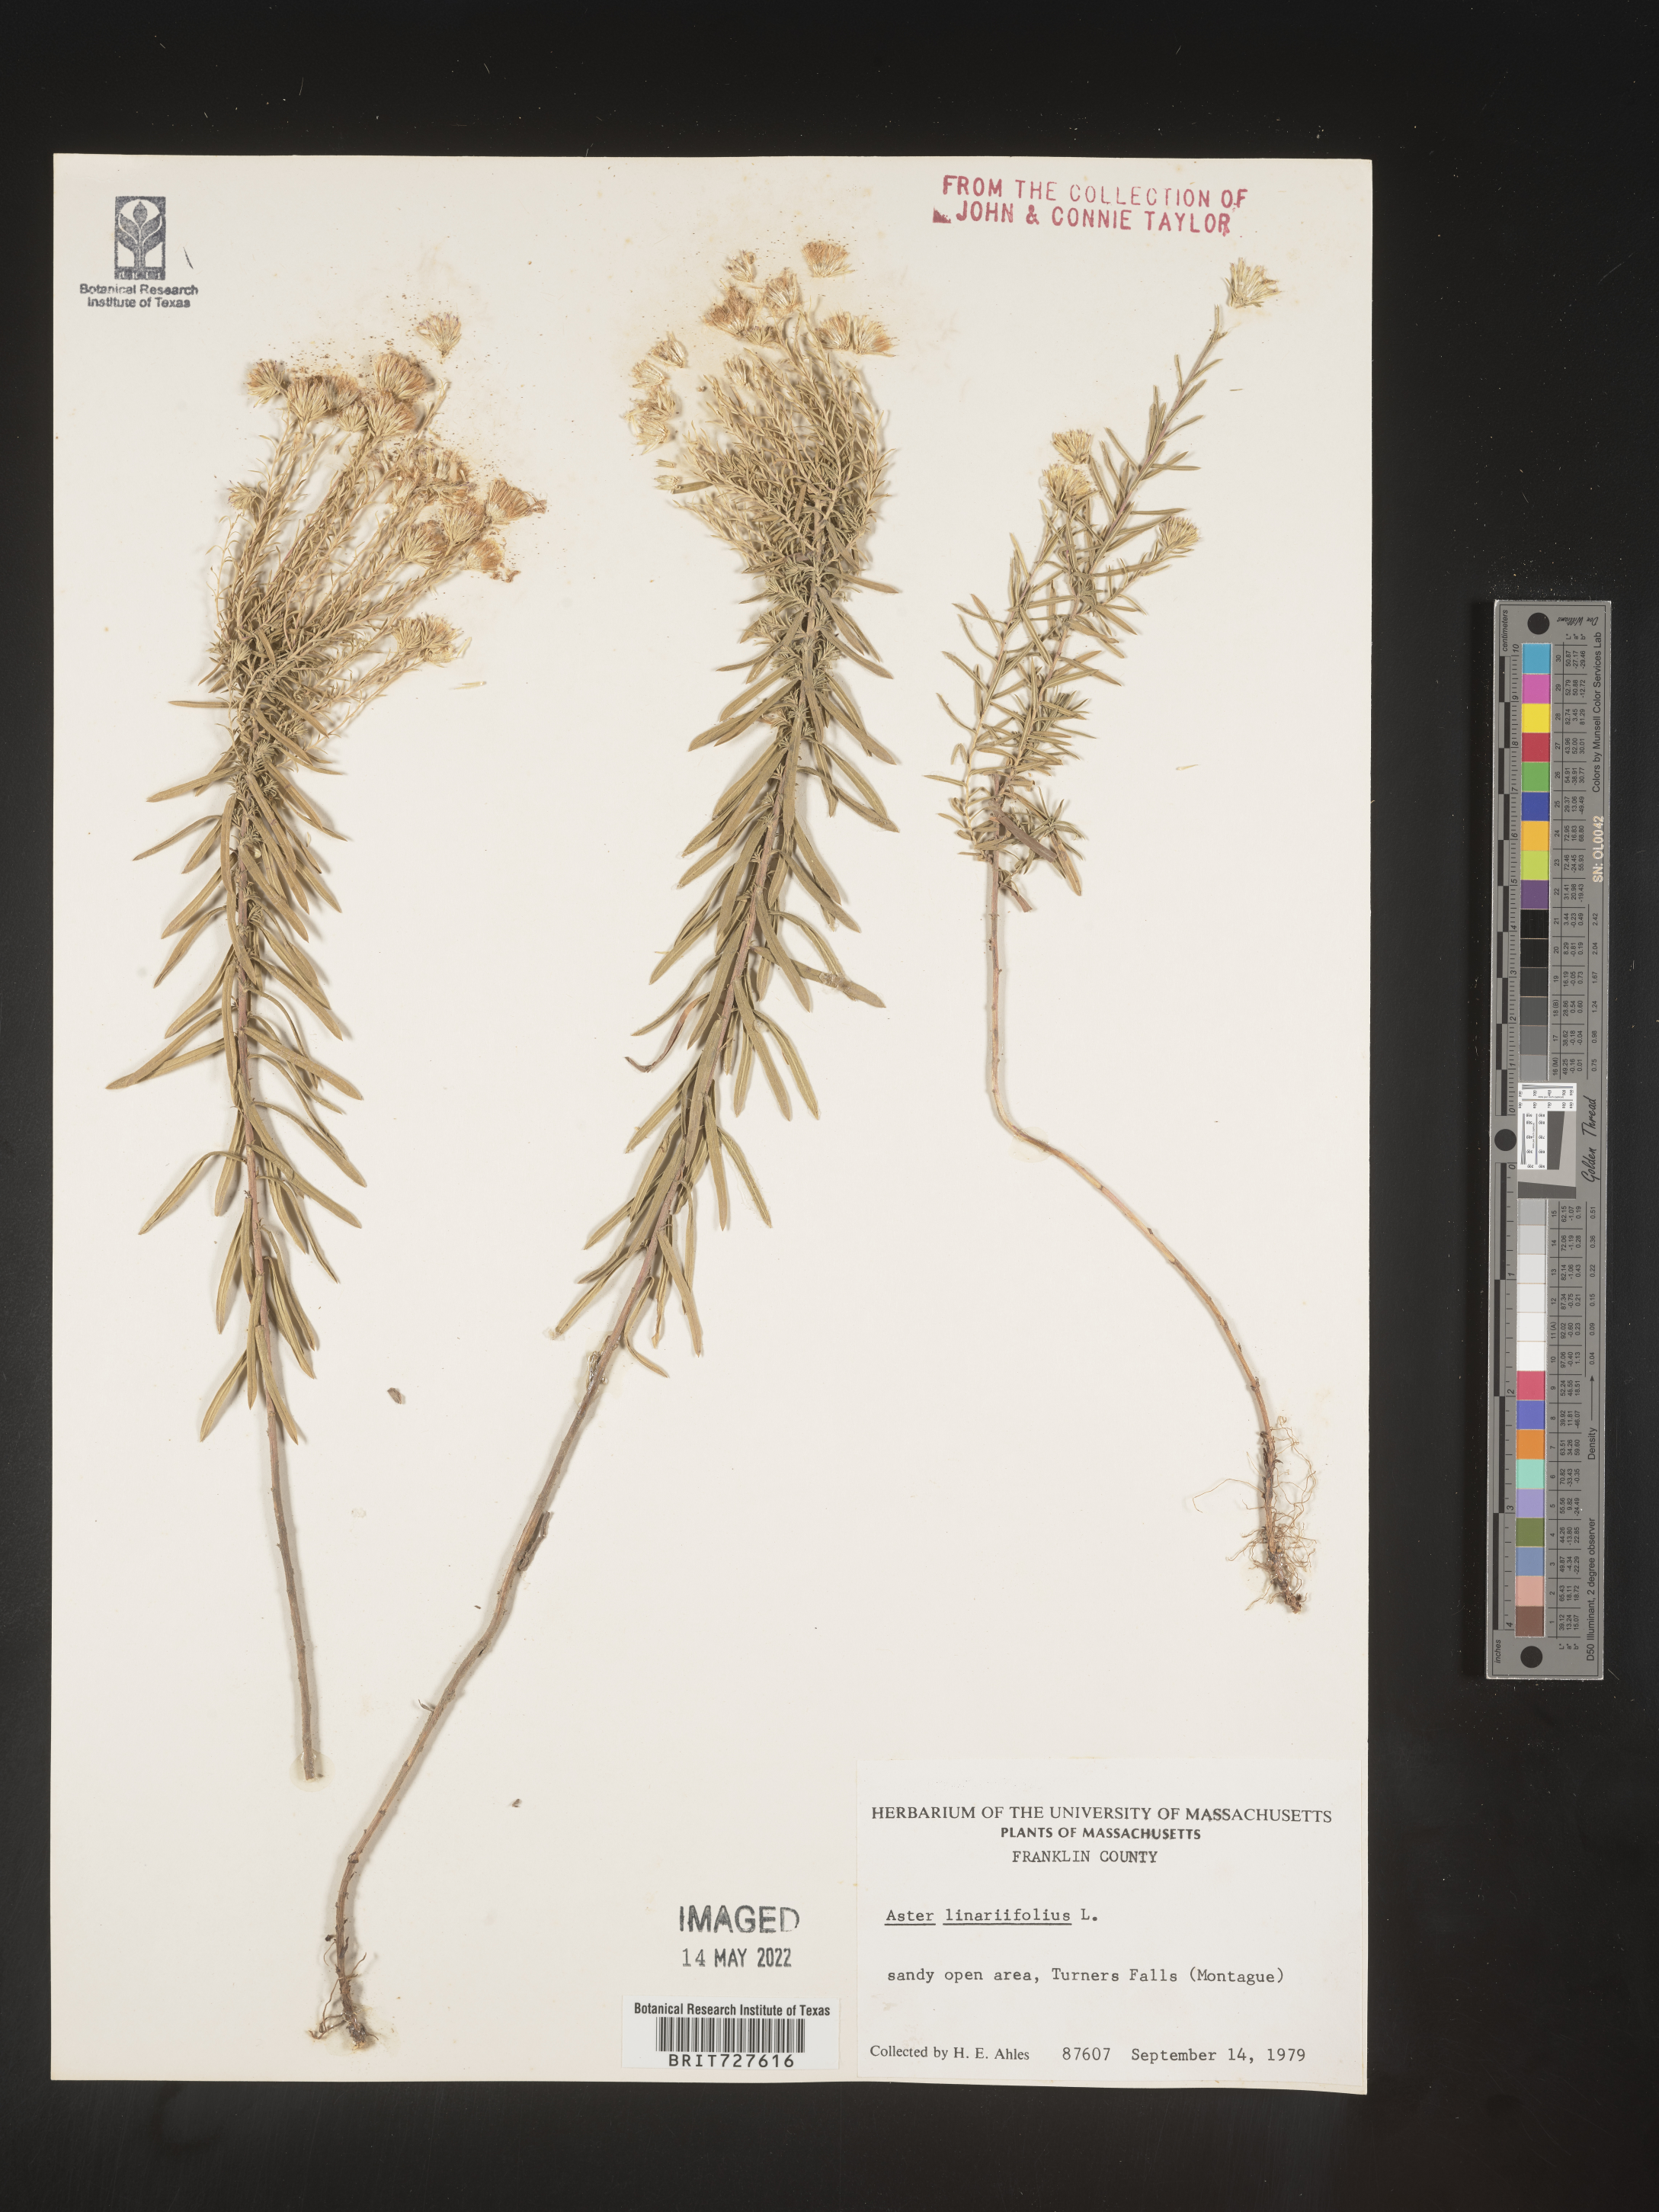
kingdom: Plantae
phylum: Tracheophyta
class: Magnoliopsida
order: Asterales
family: Asteraceae
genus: Ionactis
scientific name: Ionactis linariifolia
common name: Flax-leaf aster
